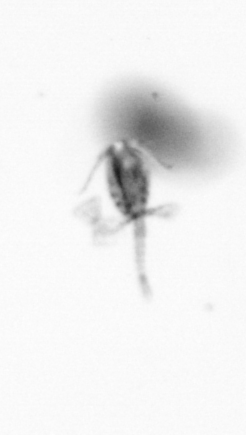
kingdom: Animalia
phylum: Arthropoda
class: Copepoda
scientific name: Copepoda
